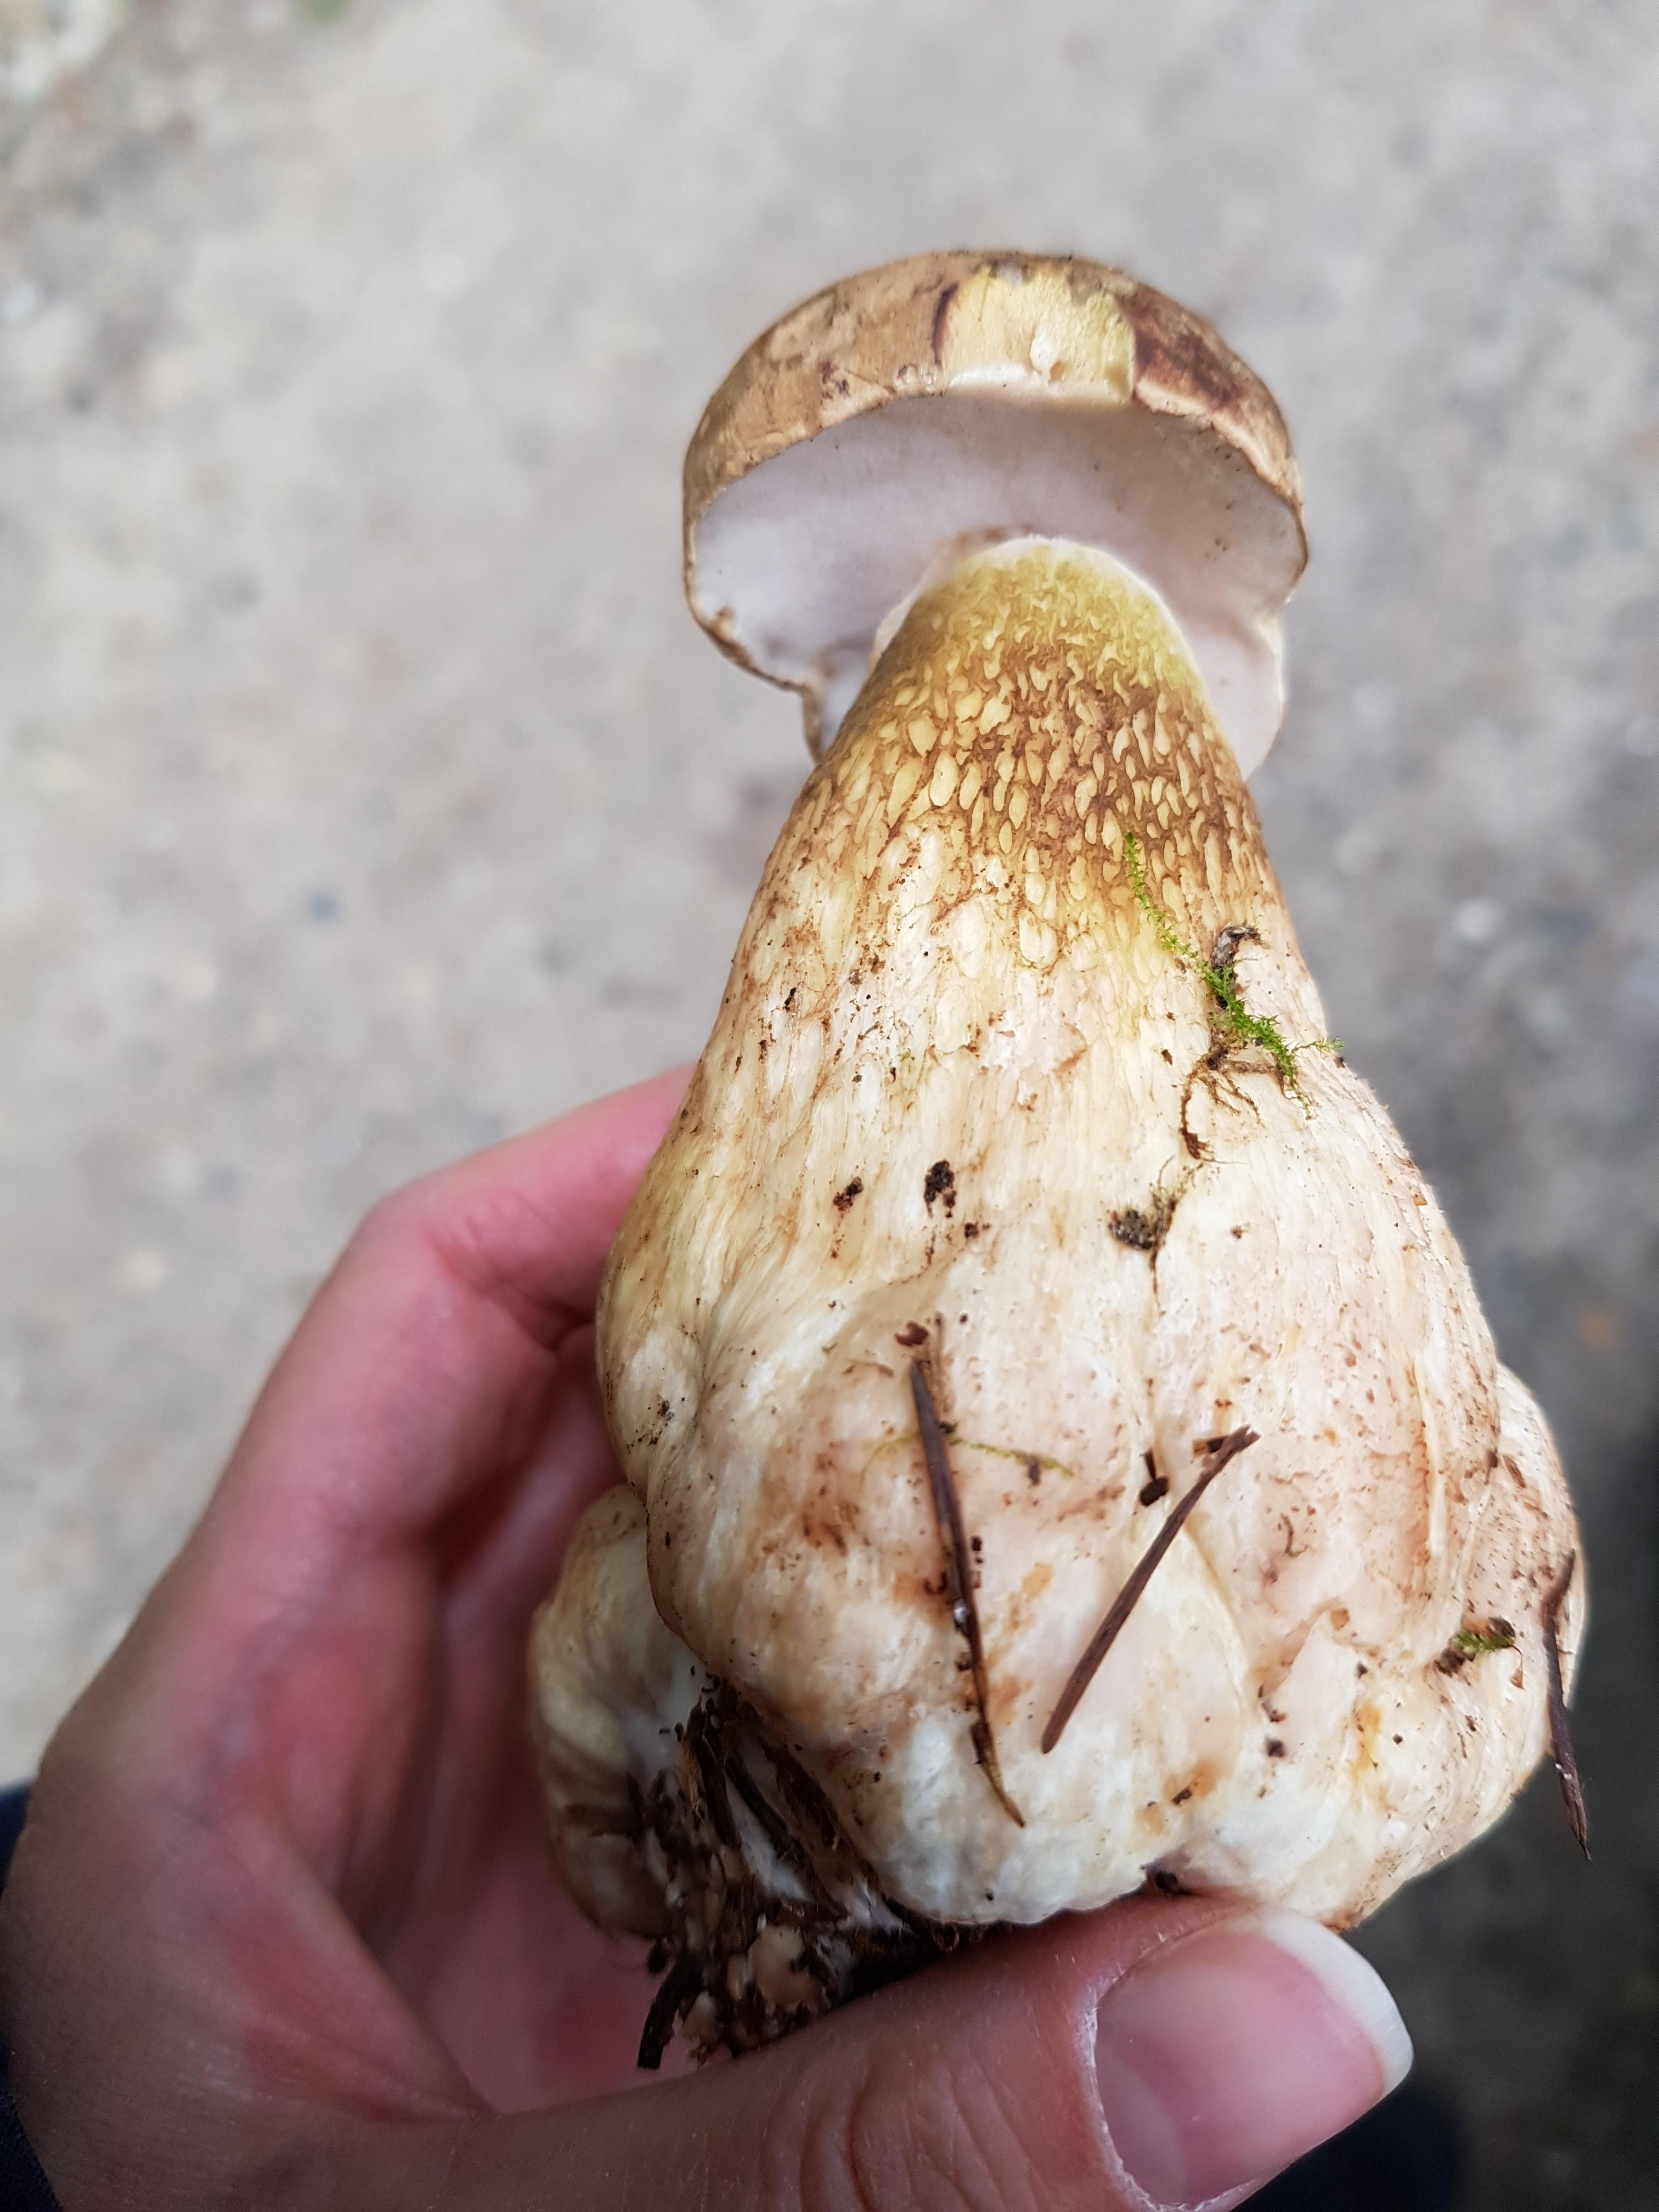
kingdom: Fungi
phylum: Basidiomycota
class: Agaricomycetes
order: Boletales
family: Boletaceae
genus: Tylopilus
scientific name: Tylopilus felleus
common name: galderørhat
